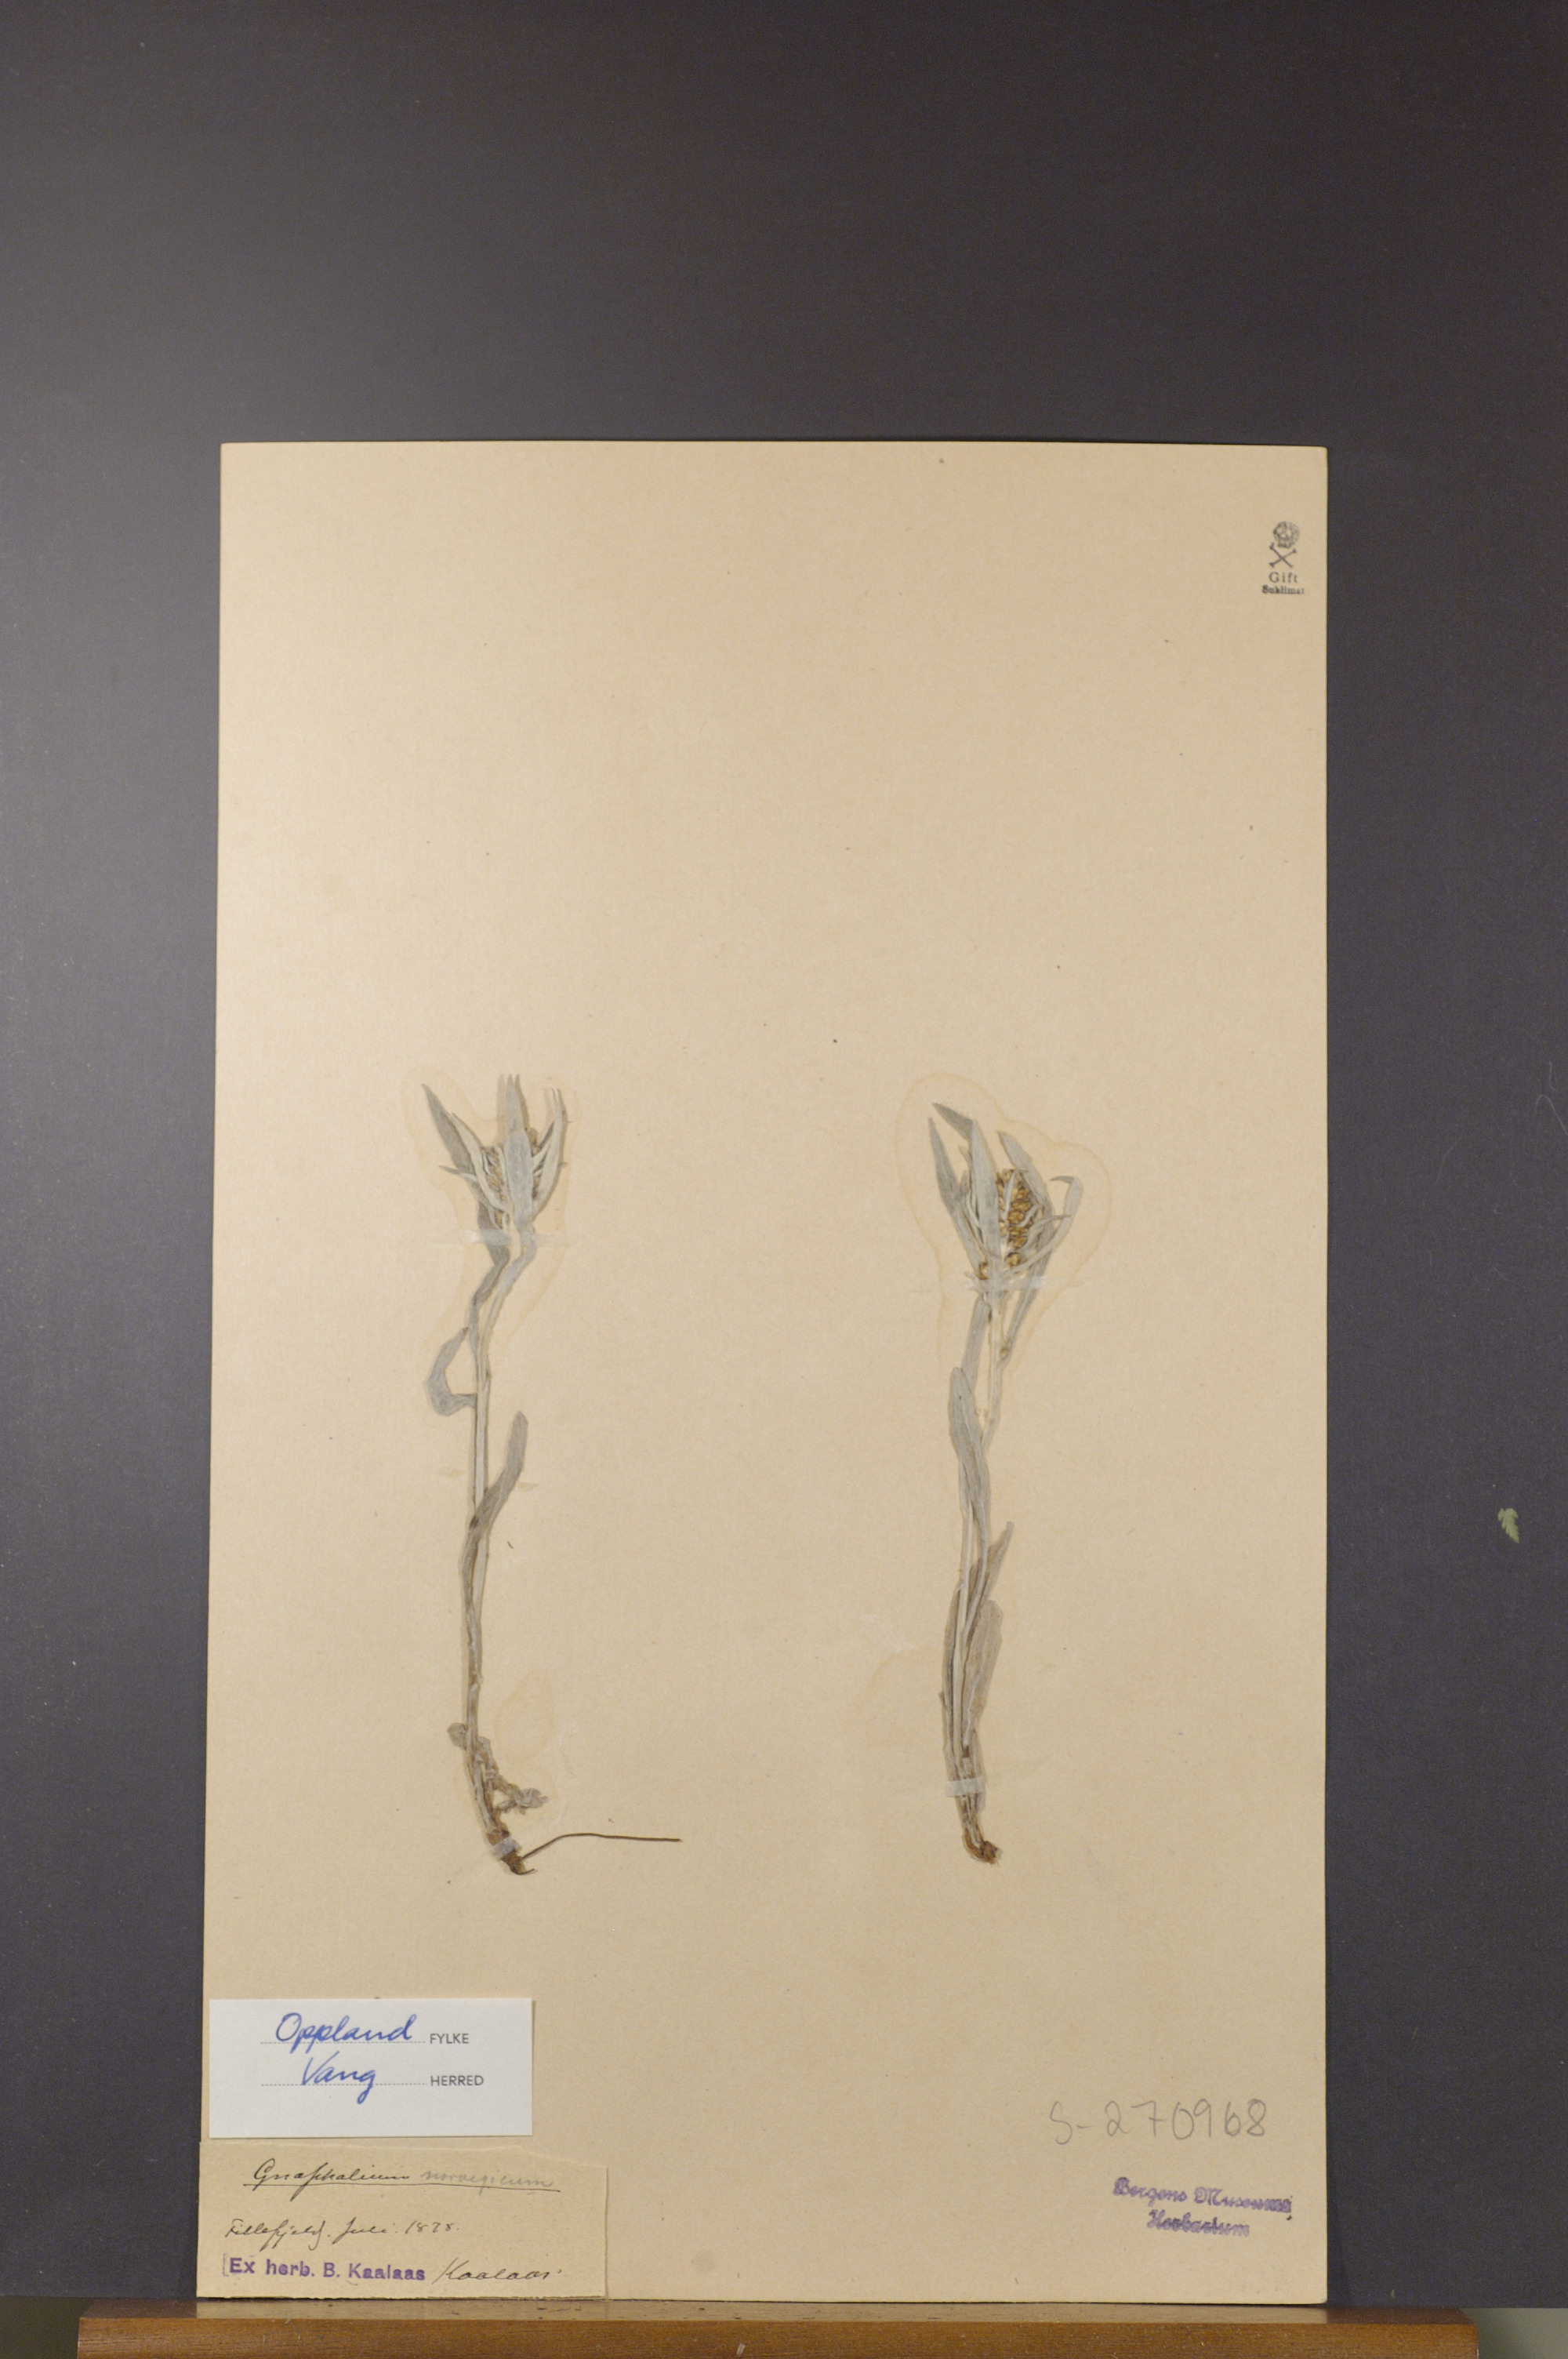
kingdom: Plantae
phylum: Tracheophyta
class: Magnoliopsida
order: Asterales
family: Asteraceae
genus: Omalotheca
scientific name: Omalotheca norvegica
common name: Norwegian arctic-cudweed
